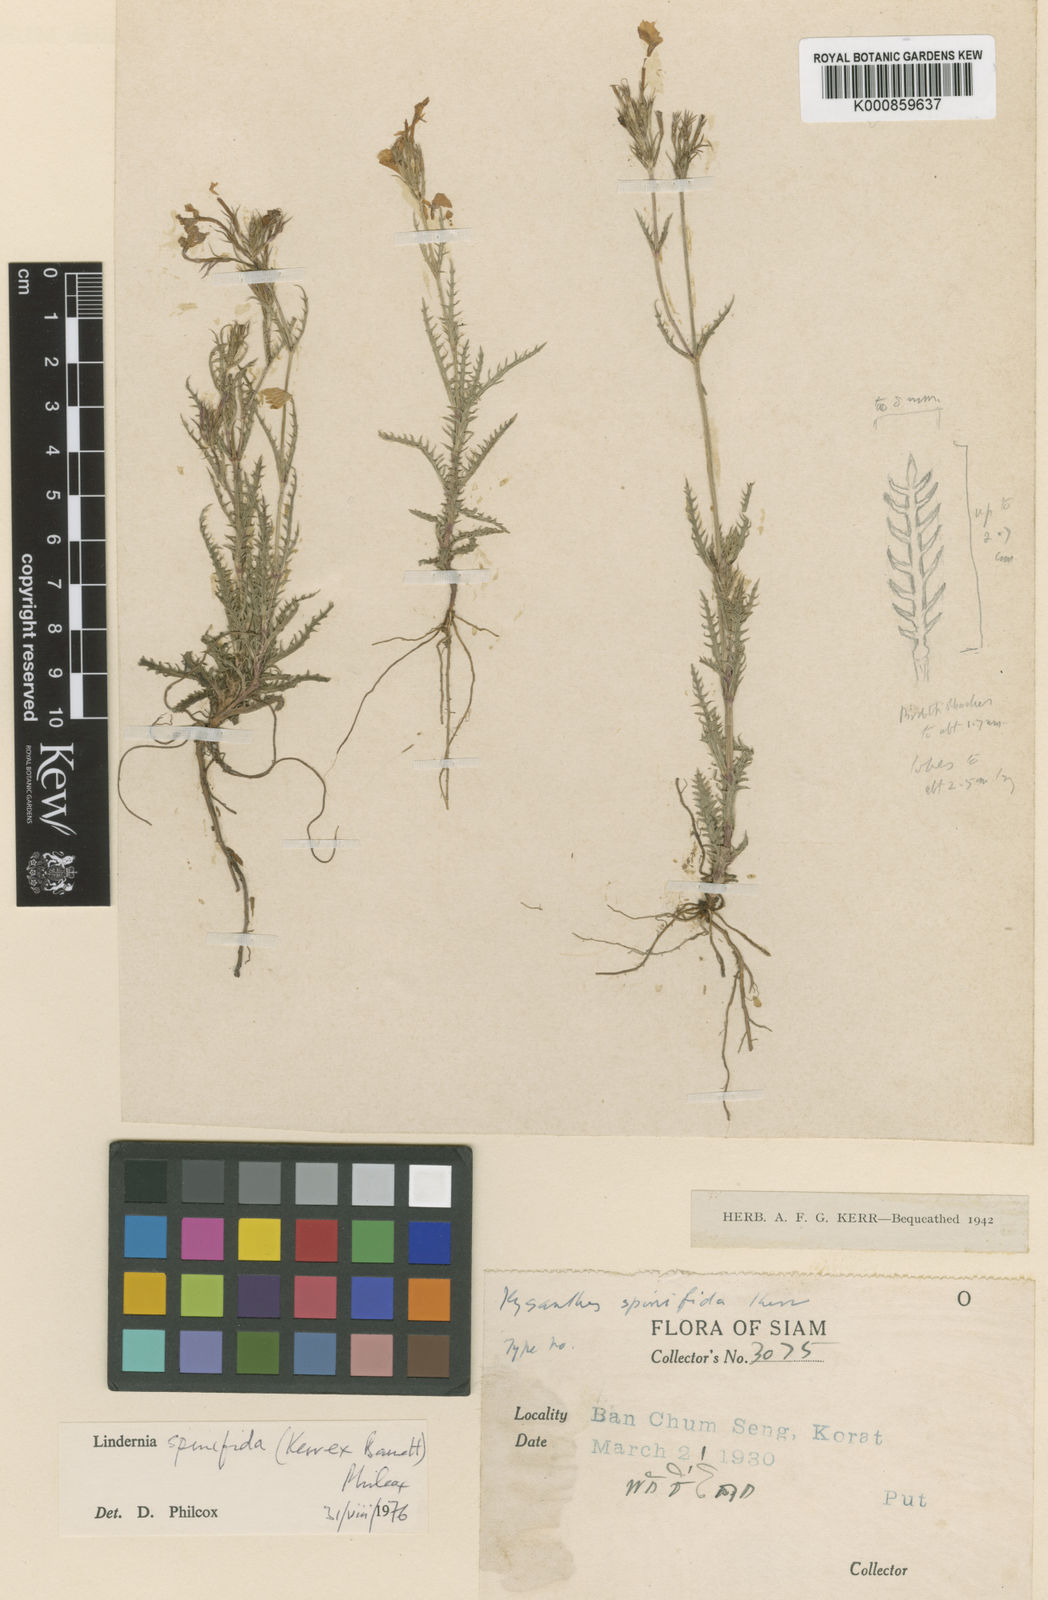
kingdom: Plantae
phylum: Tracheophyta
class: Magnoliopsida
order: Lamiales
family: Linderniaceae
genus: Scolophyllum
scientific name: Scolophyllum spinifidum
